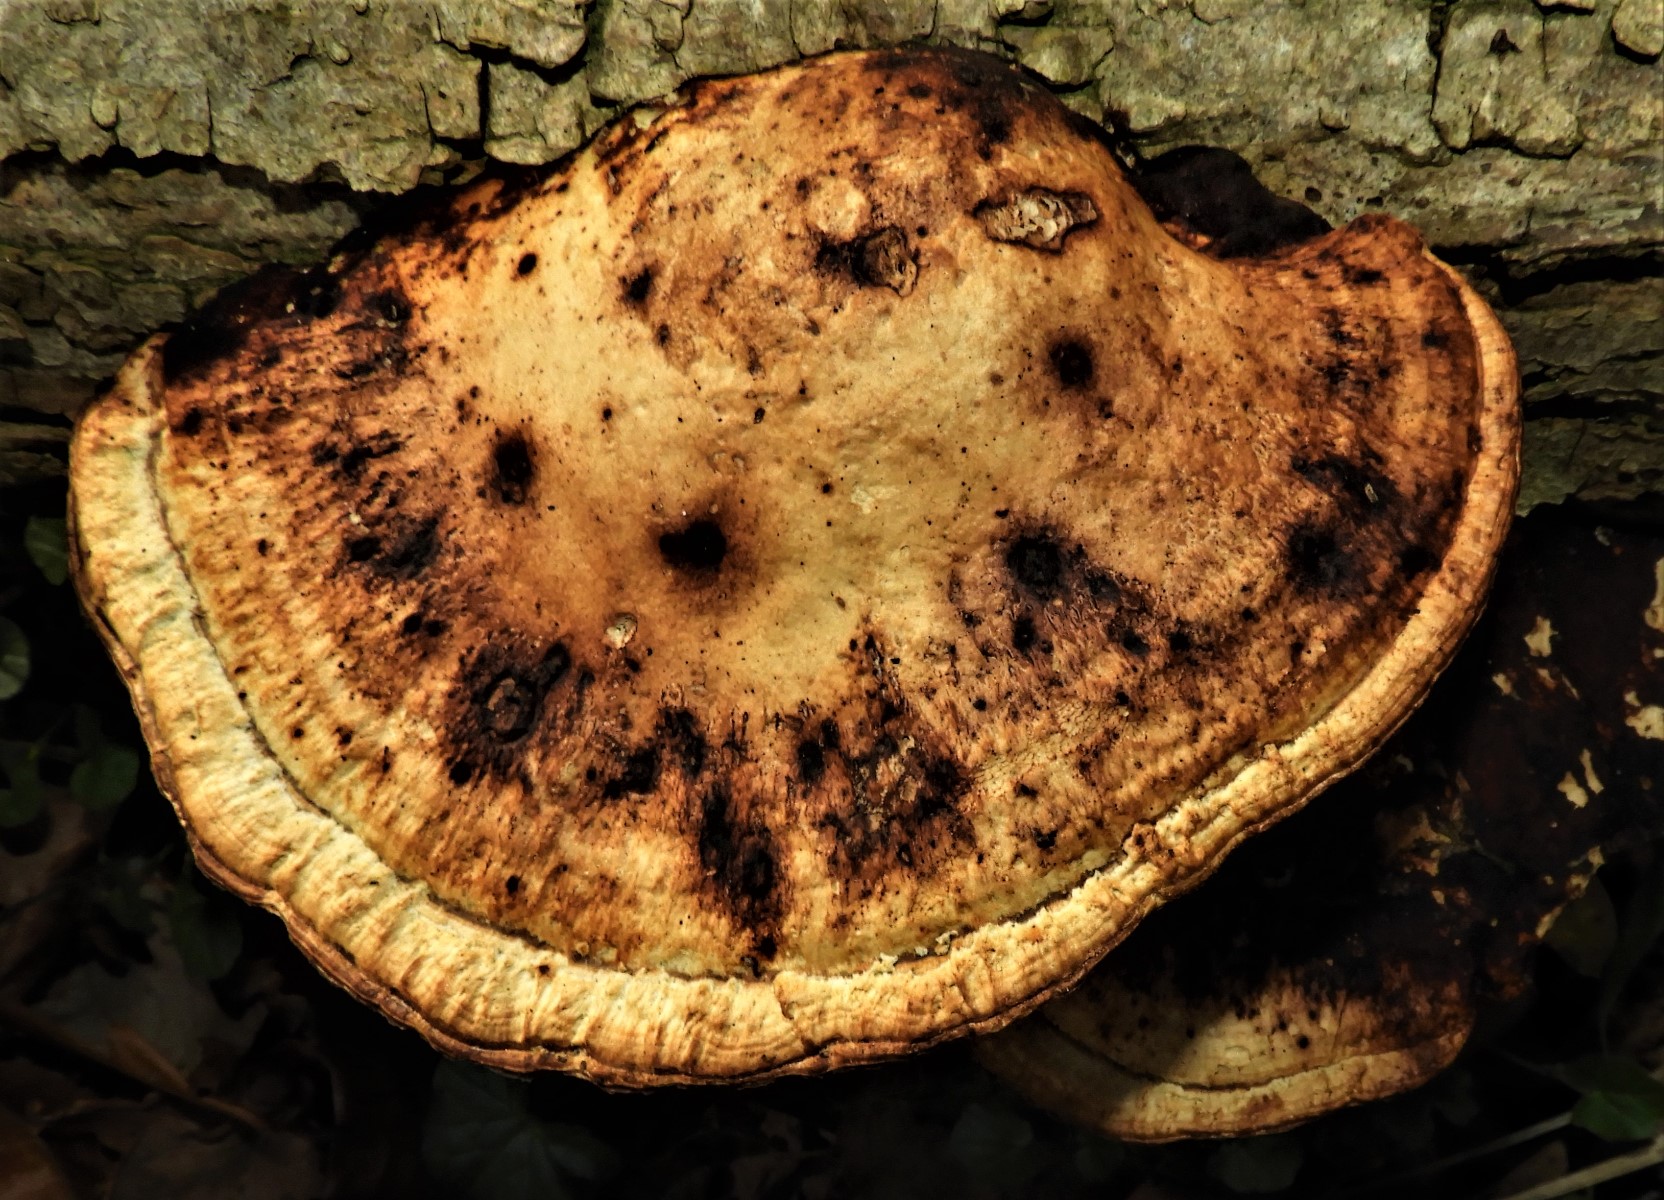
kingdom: Fungi
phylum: Basidiomycota
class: Agaricomycetes
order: Polyporales
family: Polyporaceae
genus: Daedaleopsis
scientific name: Daedaleopsis confragosa
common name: rødmende læderporesvamp
